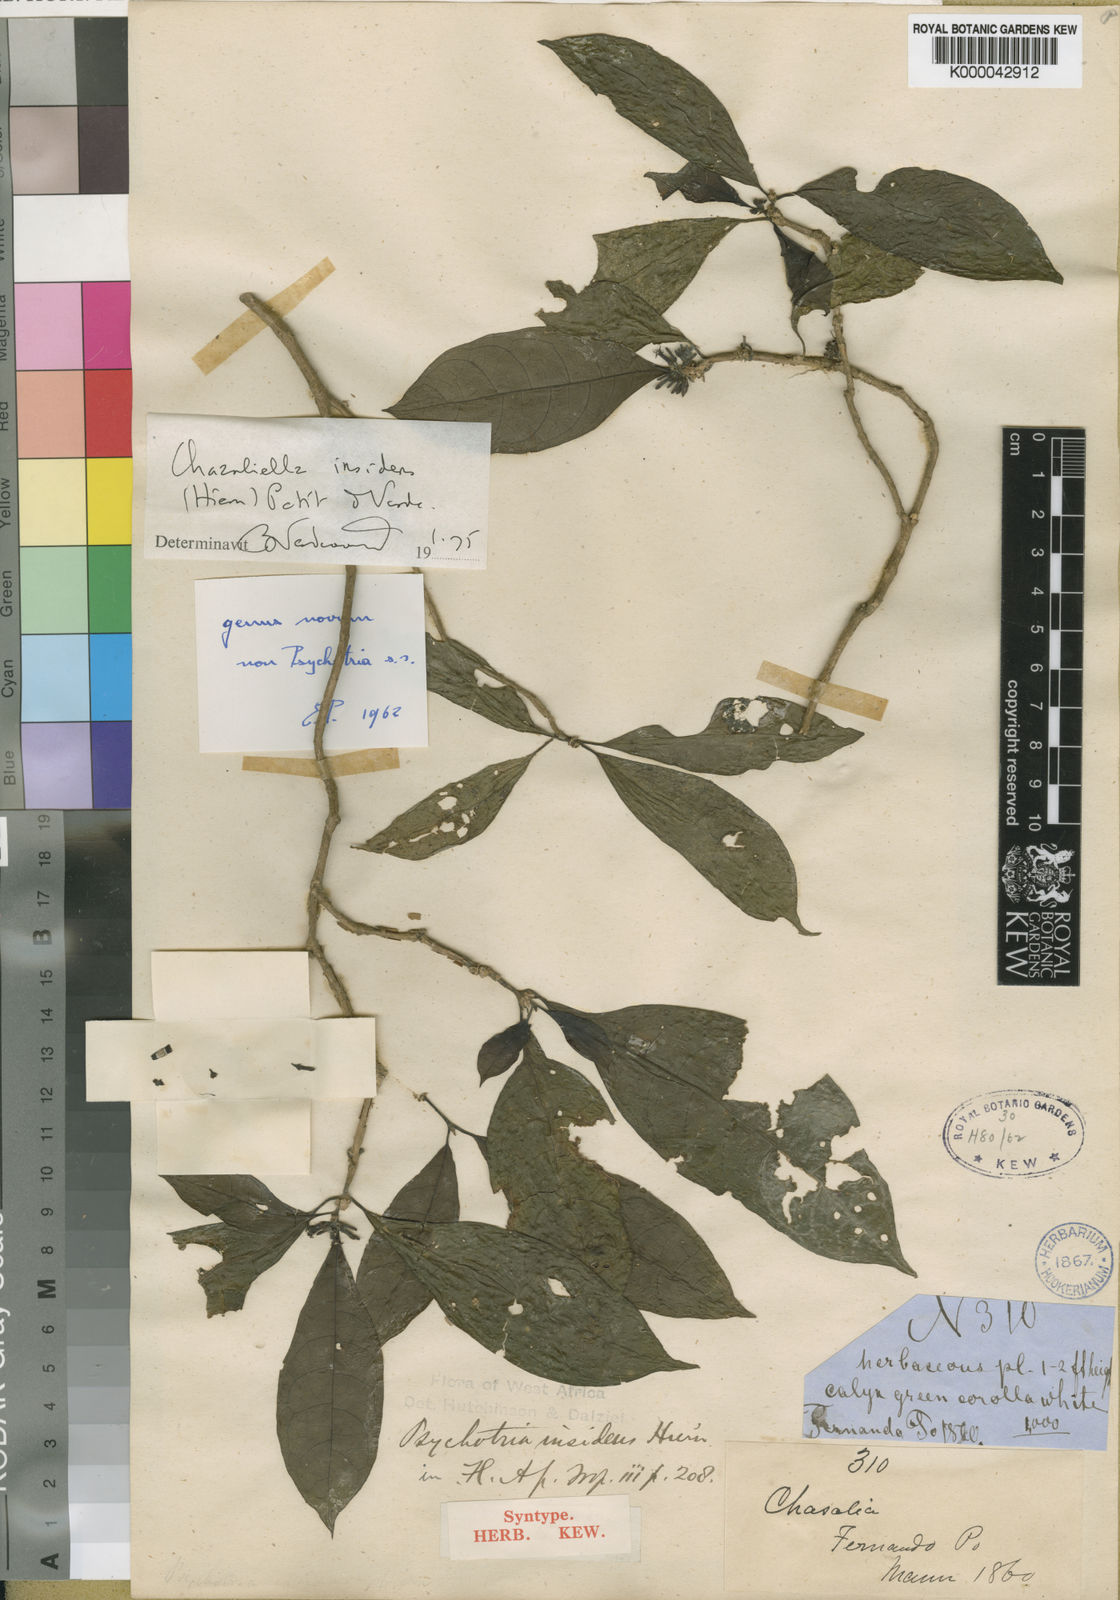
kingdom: Plantae
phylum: Tracheophyta
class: Magnoliopsida
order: Gentianales
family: Rubiaceae
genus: Eumachia
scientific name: Eumachia insidens
